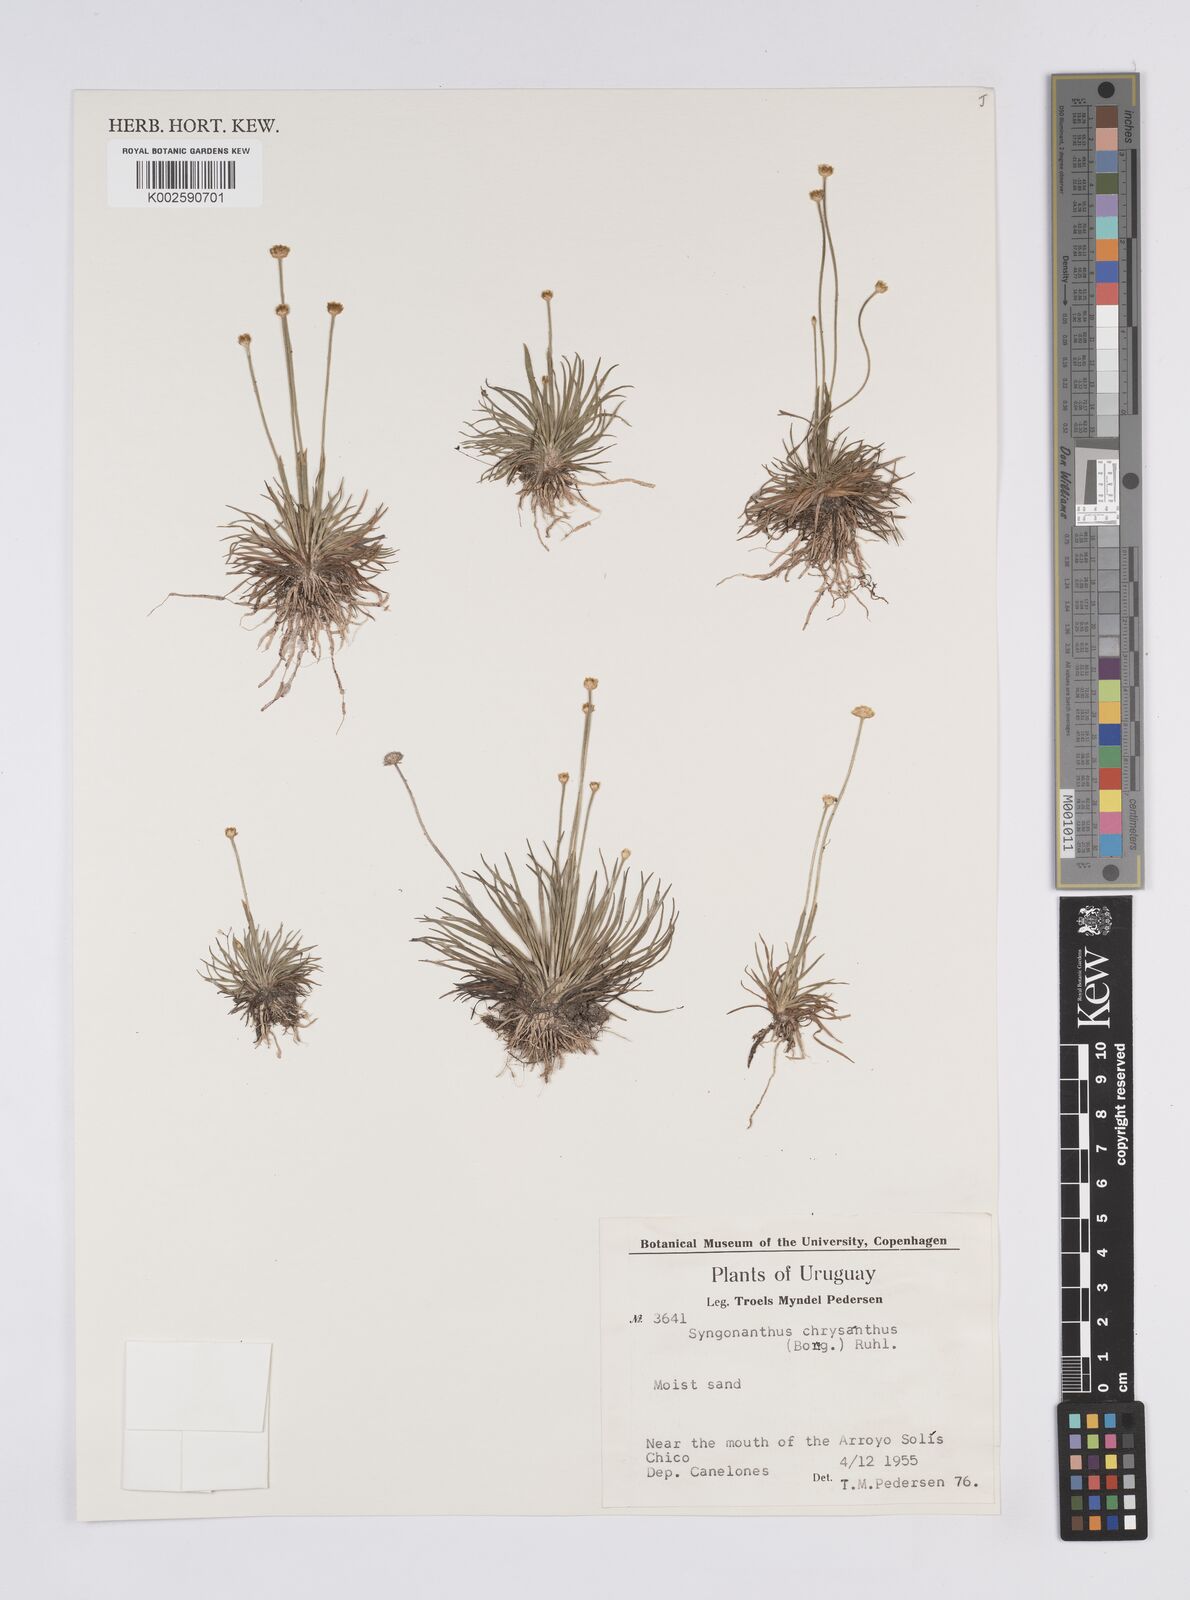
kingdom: Plantae
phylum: Tracheophyta
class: Liliopsida
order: Poales
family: Eriocaulaceae
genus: Syngonanthus
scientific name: Syngonanthus chrysanthus
